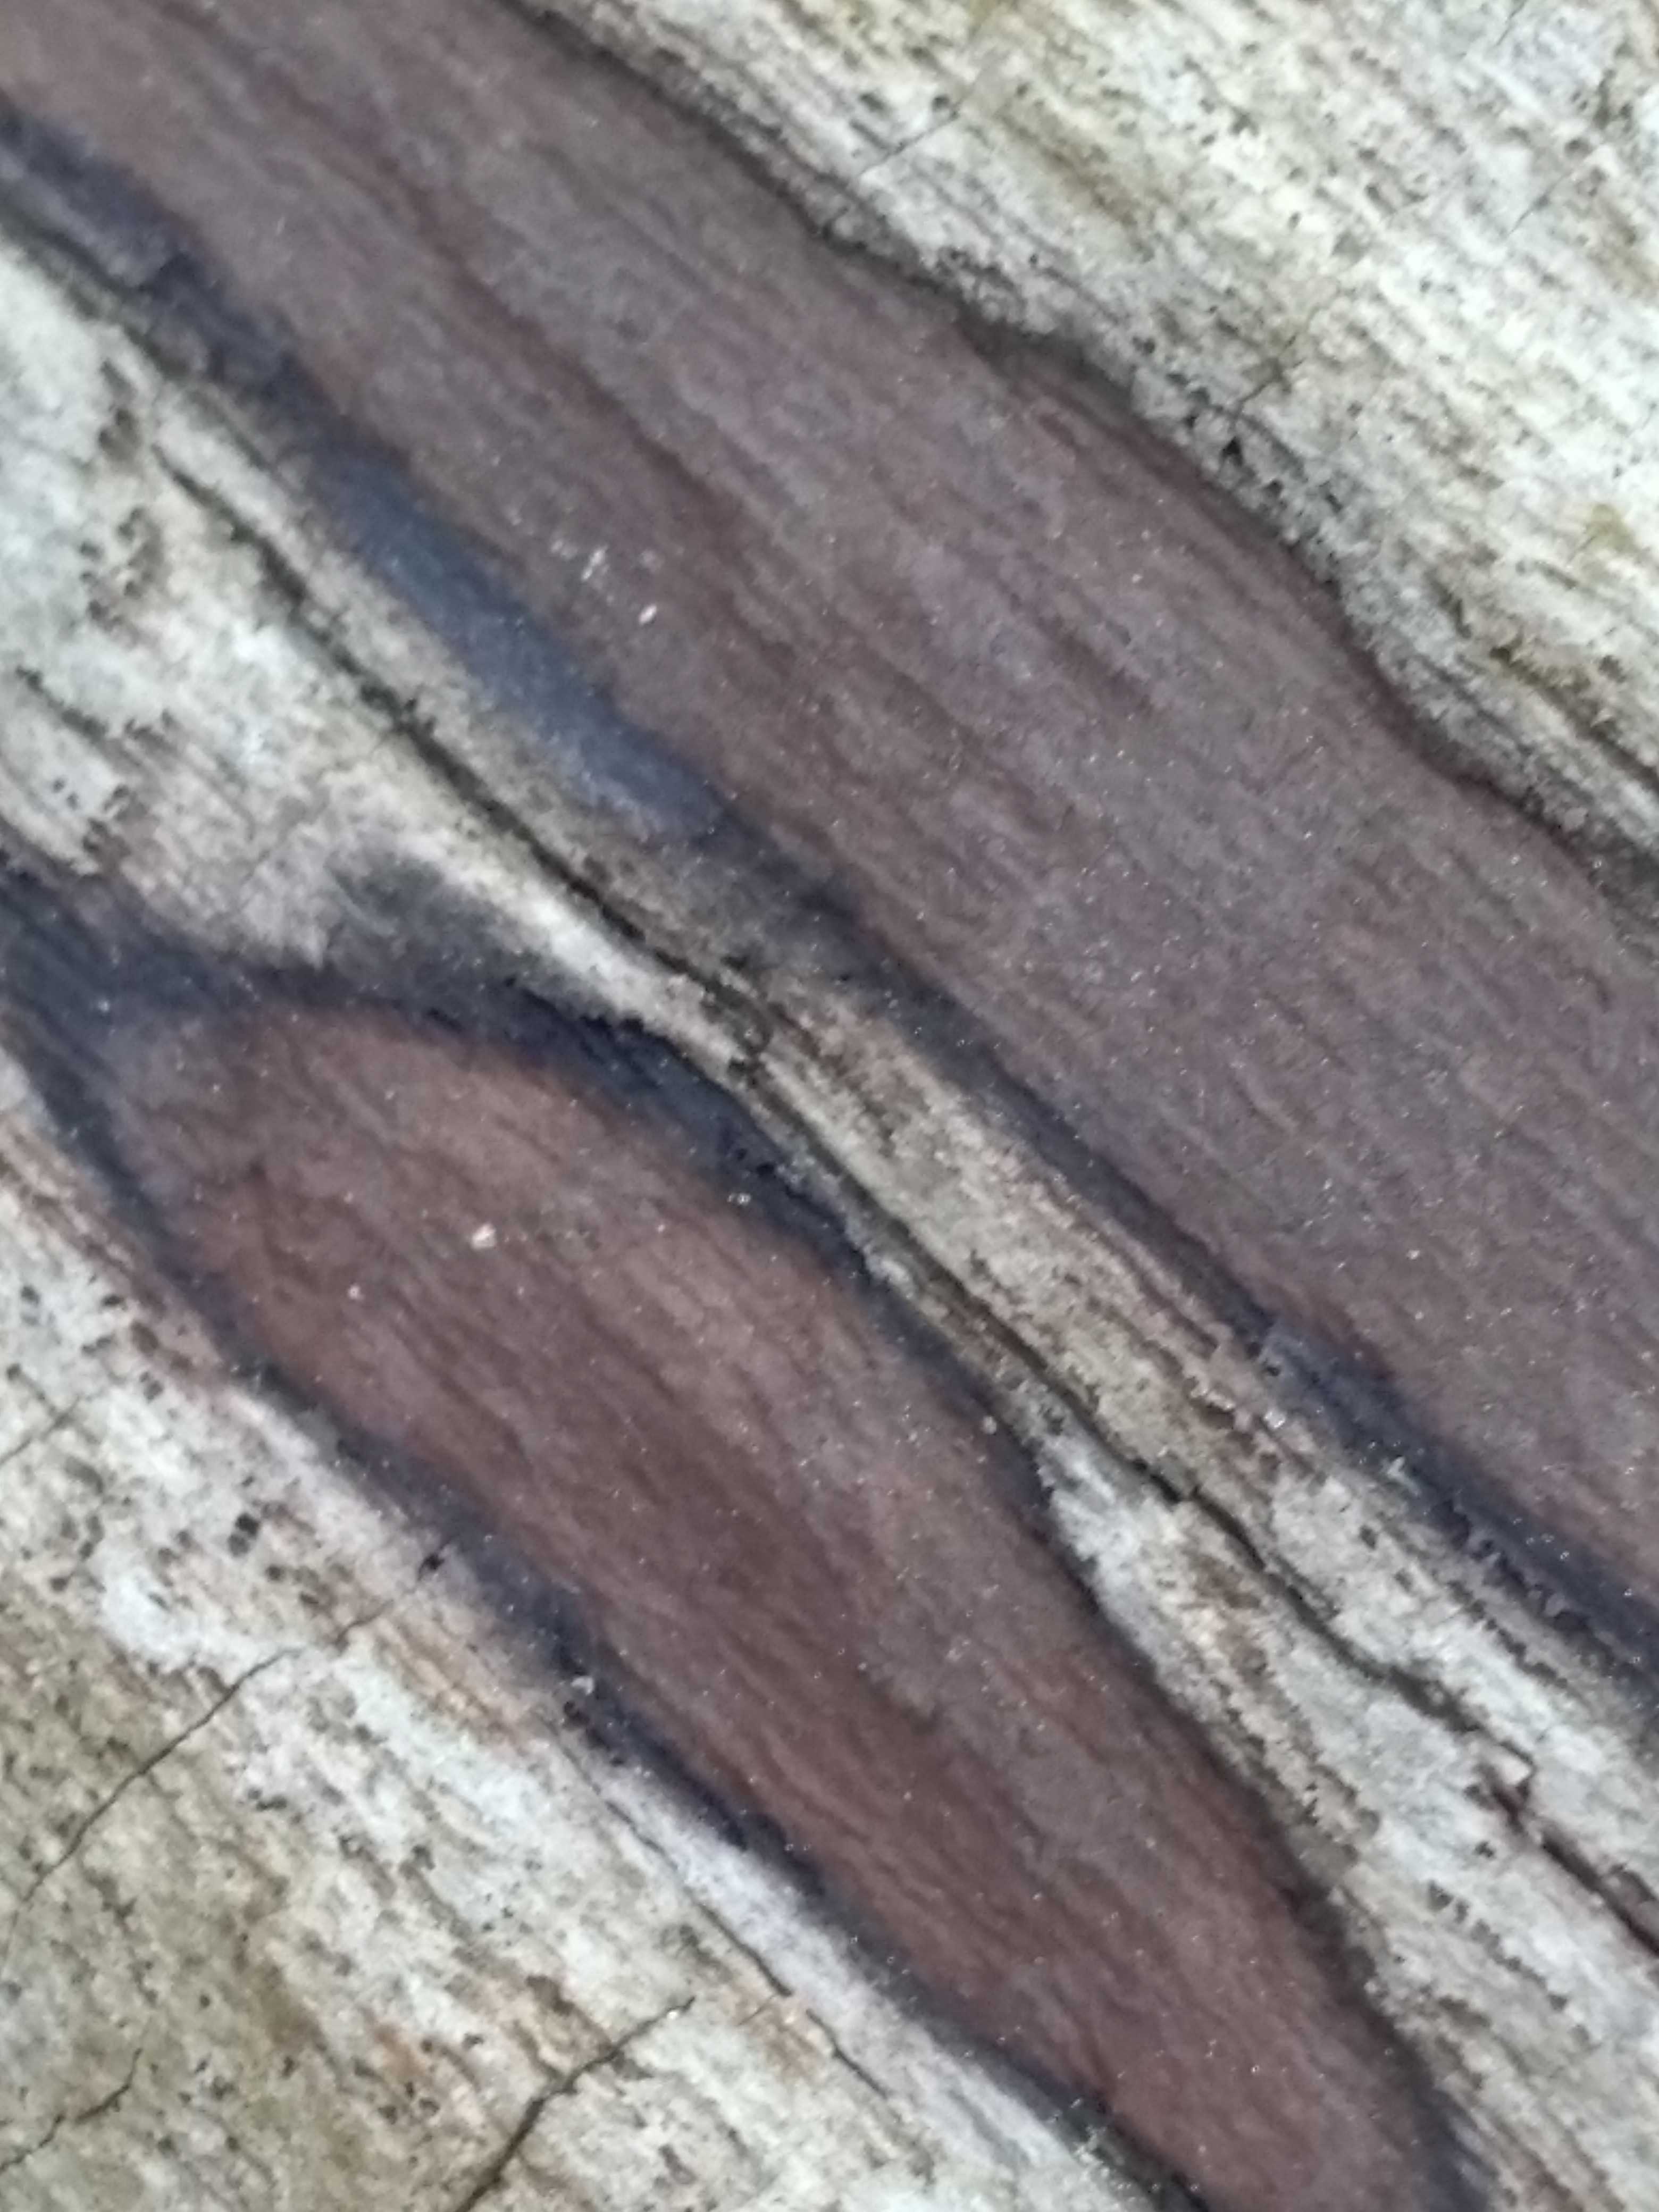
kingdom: Fungi
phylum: Ascomycota
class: Sordariomycetes
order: Xylariales
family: Hypoxylaceae
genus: Hypoxylon
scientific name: Hypoxylon petriniae
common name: nedsænket kulbær
